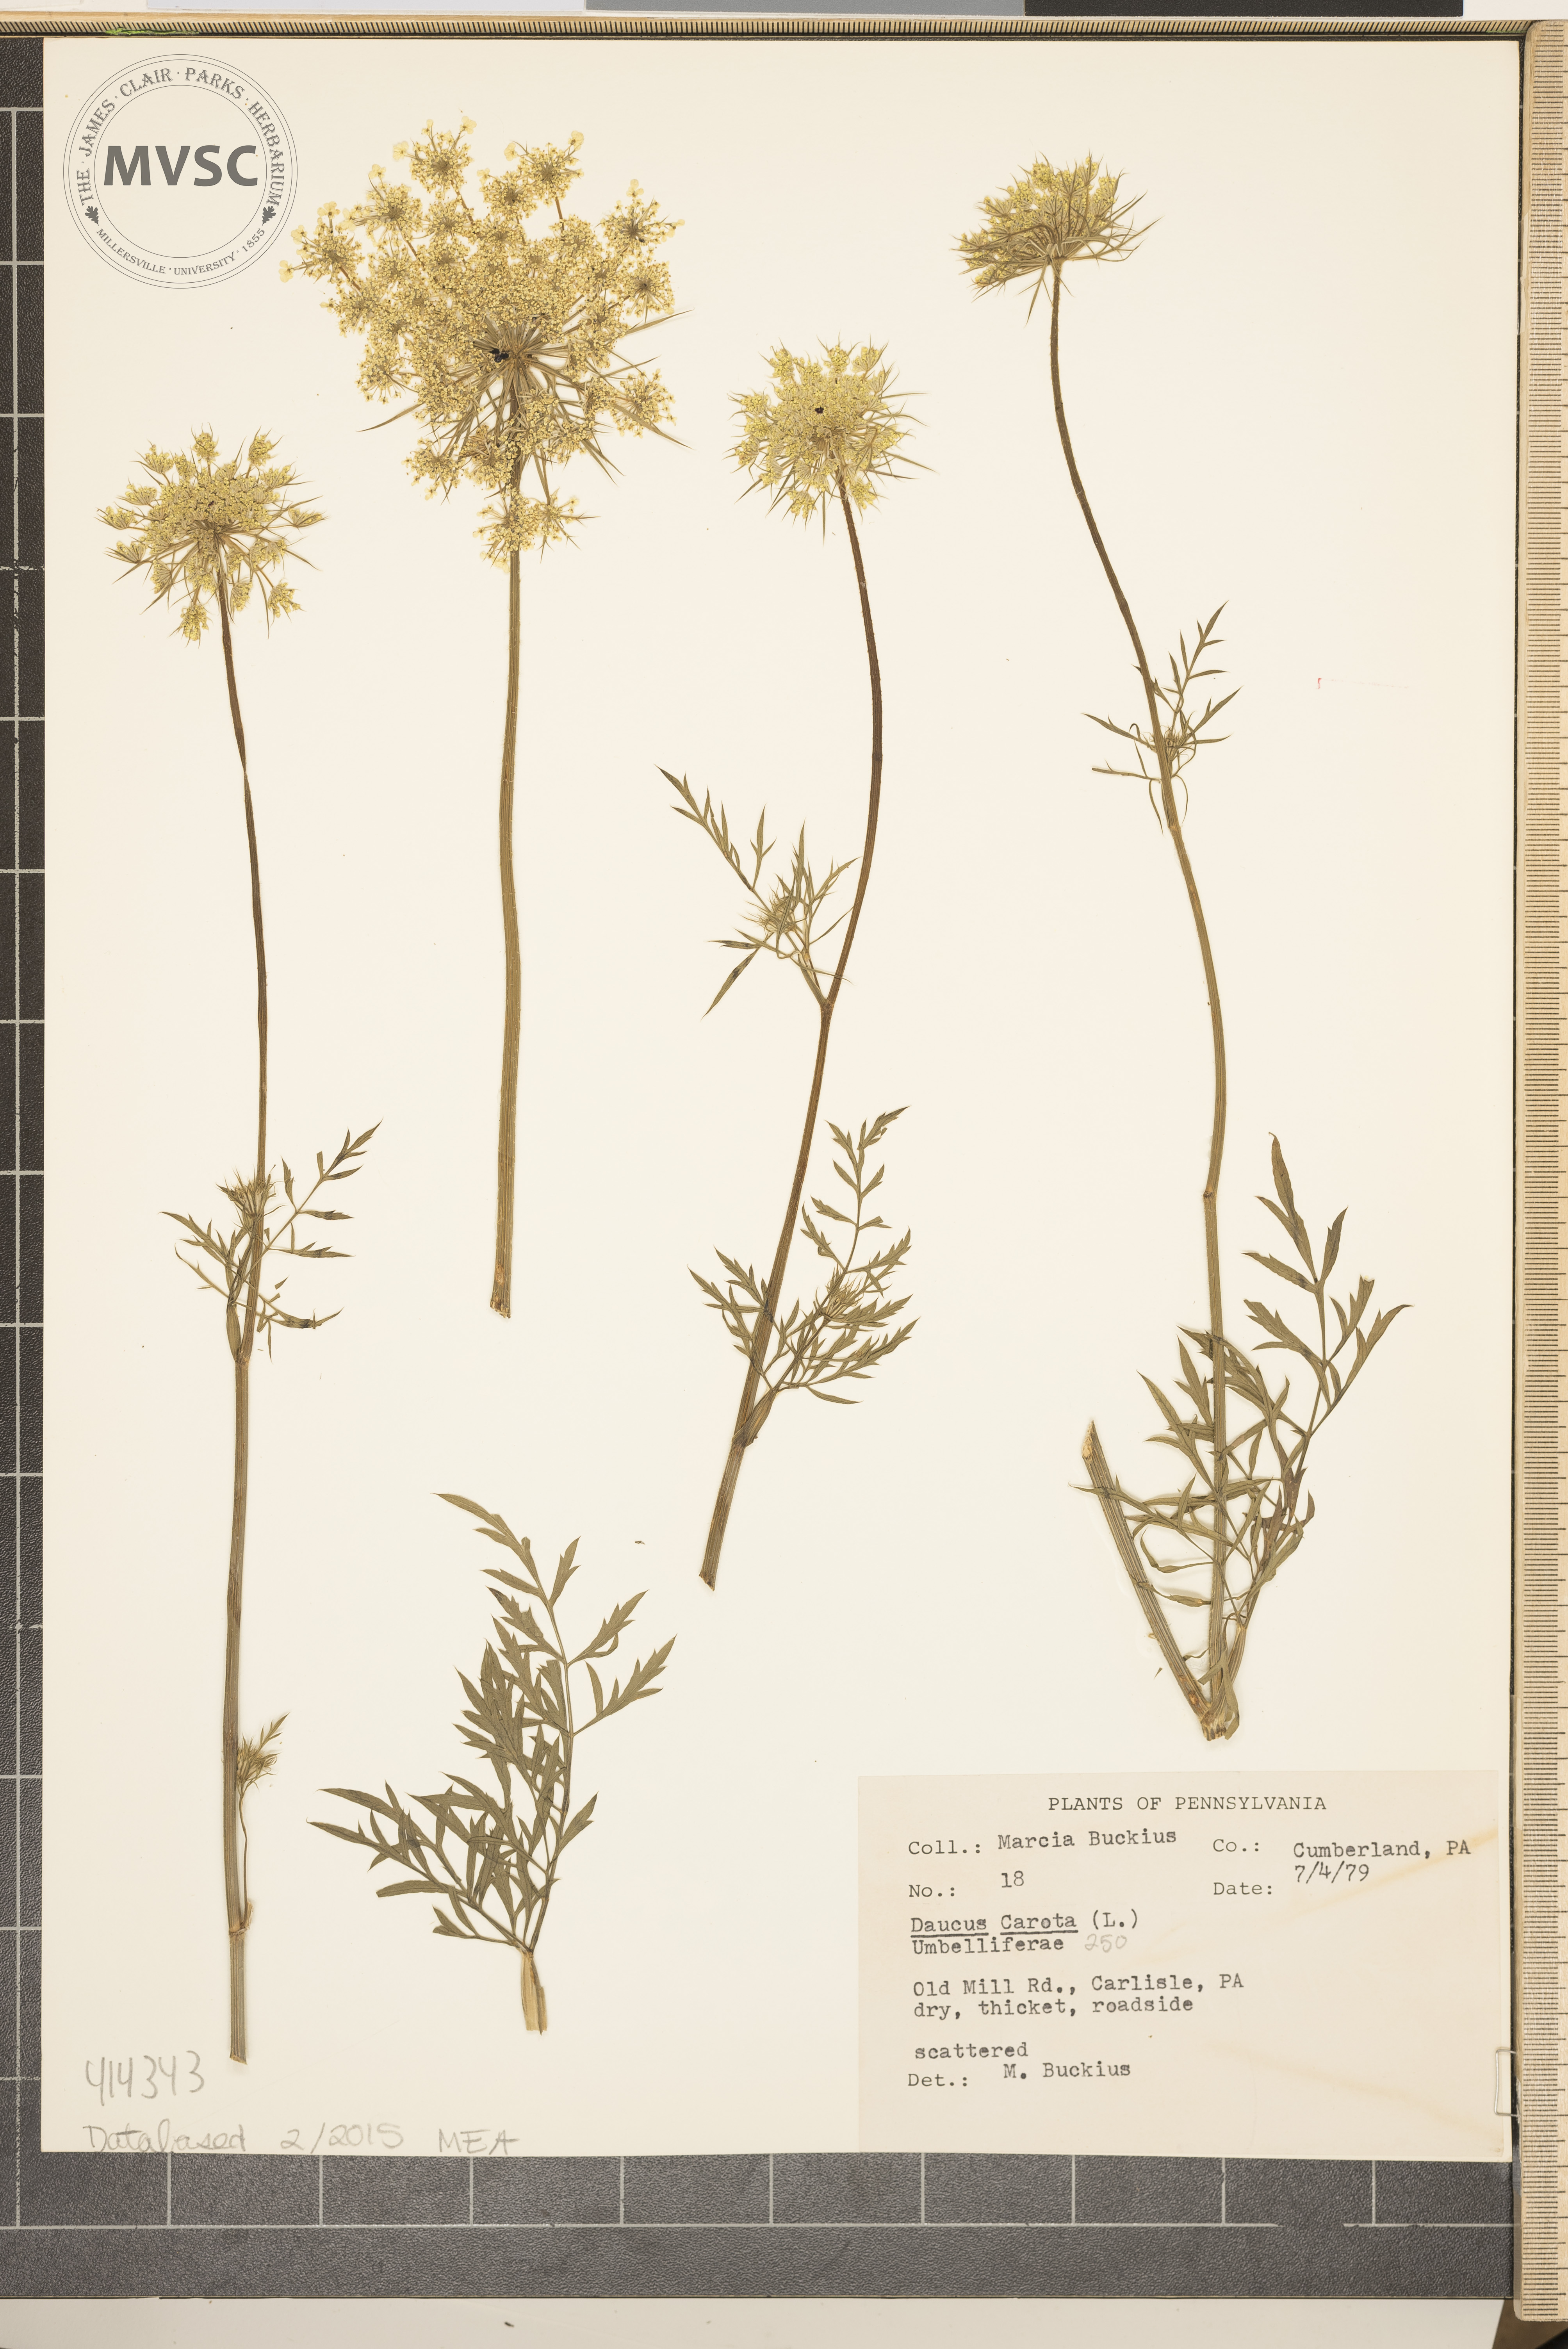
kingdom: Plantae
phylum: Tracheophyta
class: Magnoliopsida
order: Apiales
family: Apiaceae
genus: Daucus
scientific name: Daucus carota
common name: Wild carrot
